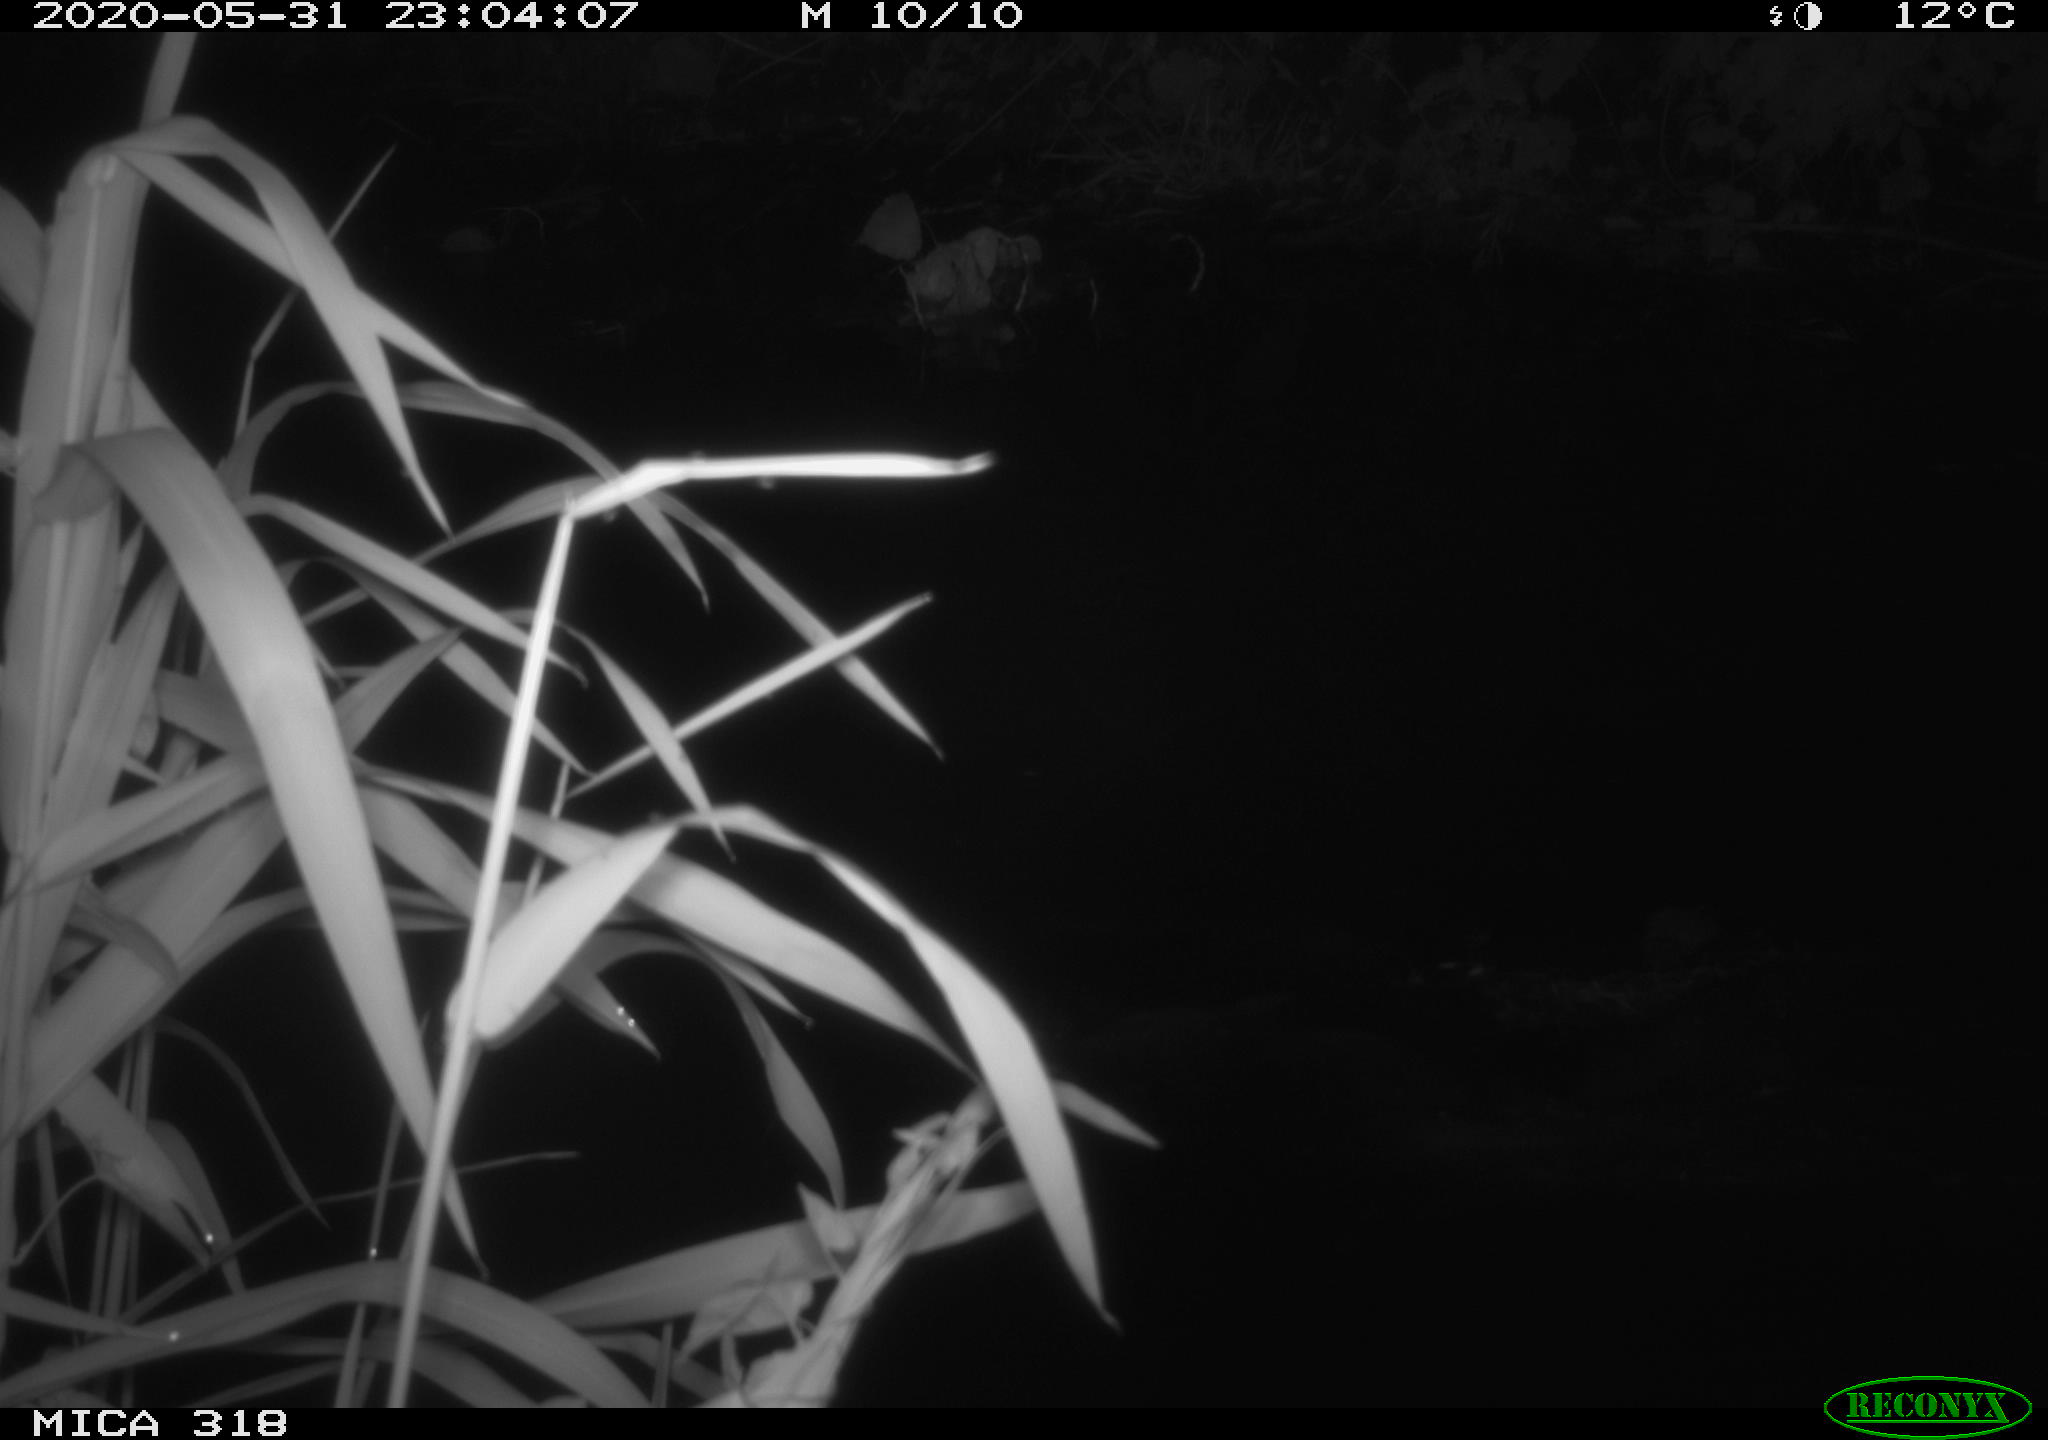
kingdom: Animalia
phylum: Chordata
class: Aves
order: Pelecaniformes
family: Ardeidae
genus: Ardea
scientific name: Ardea cinerea
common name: Grey heron
